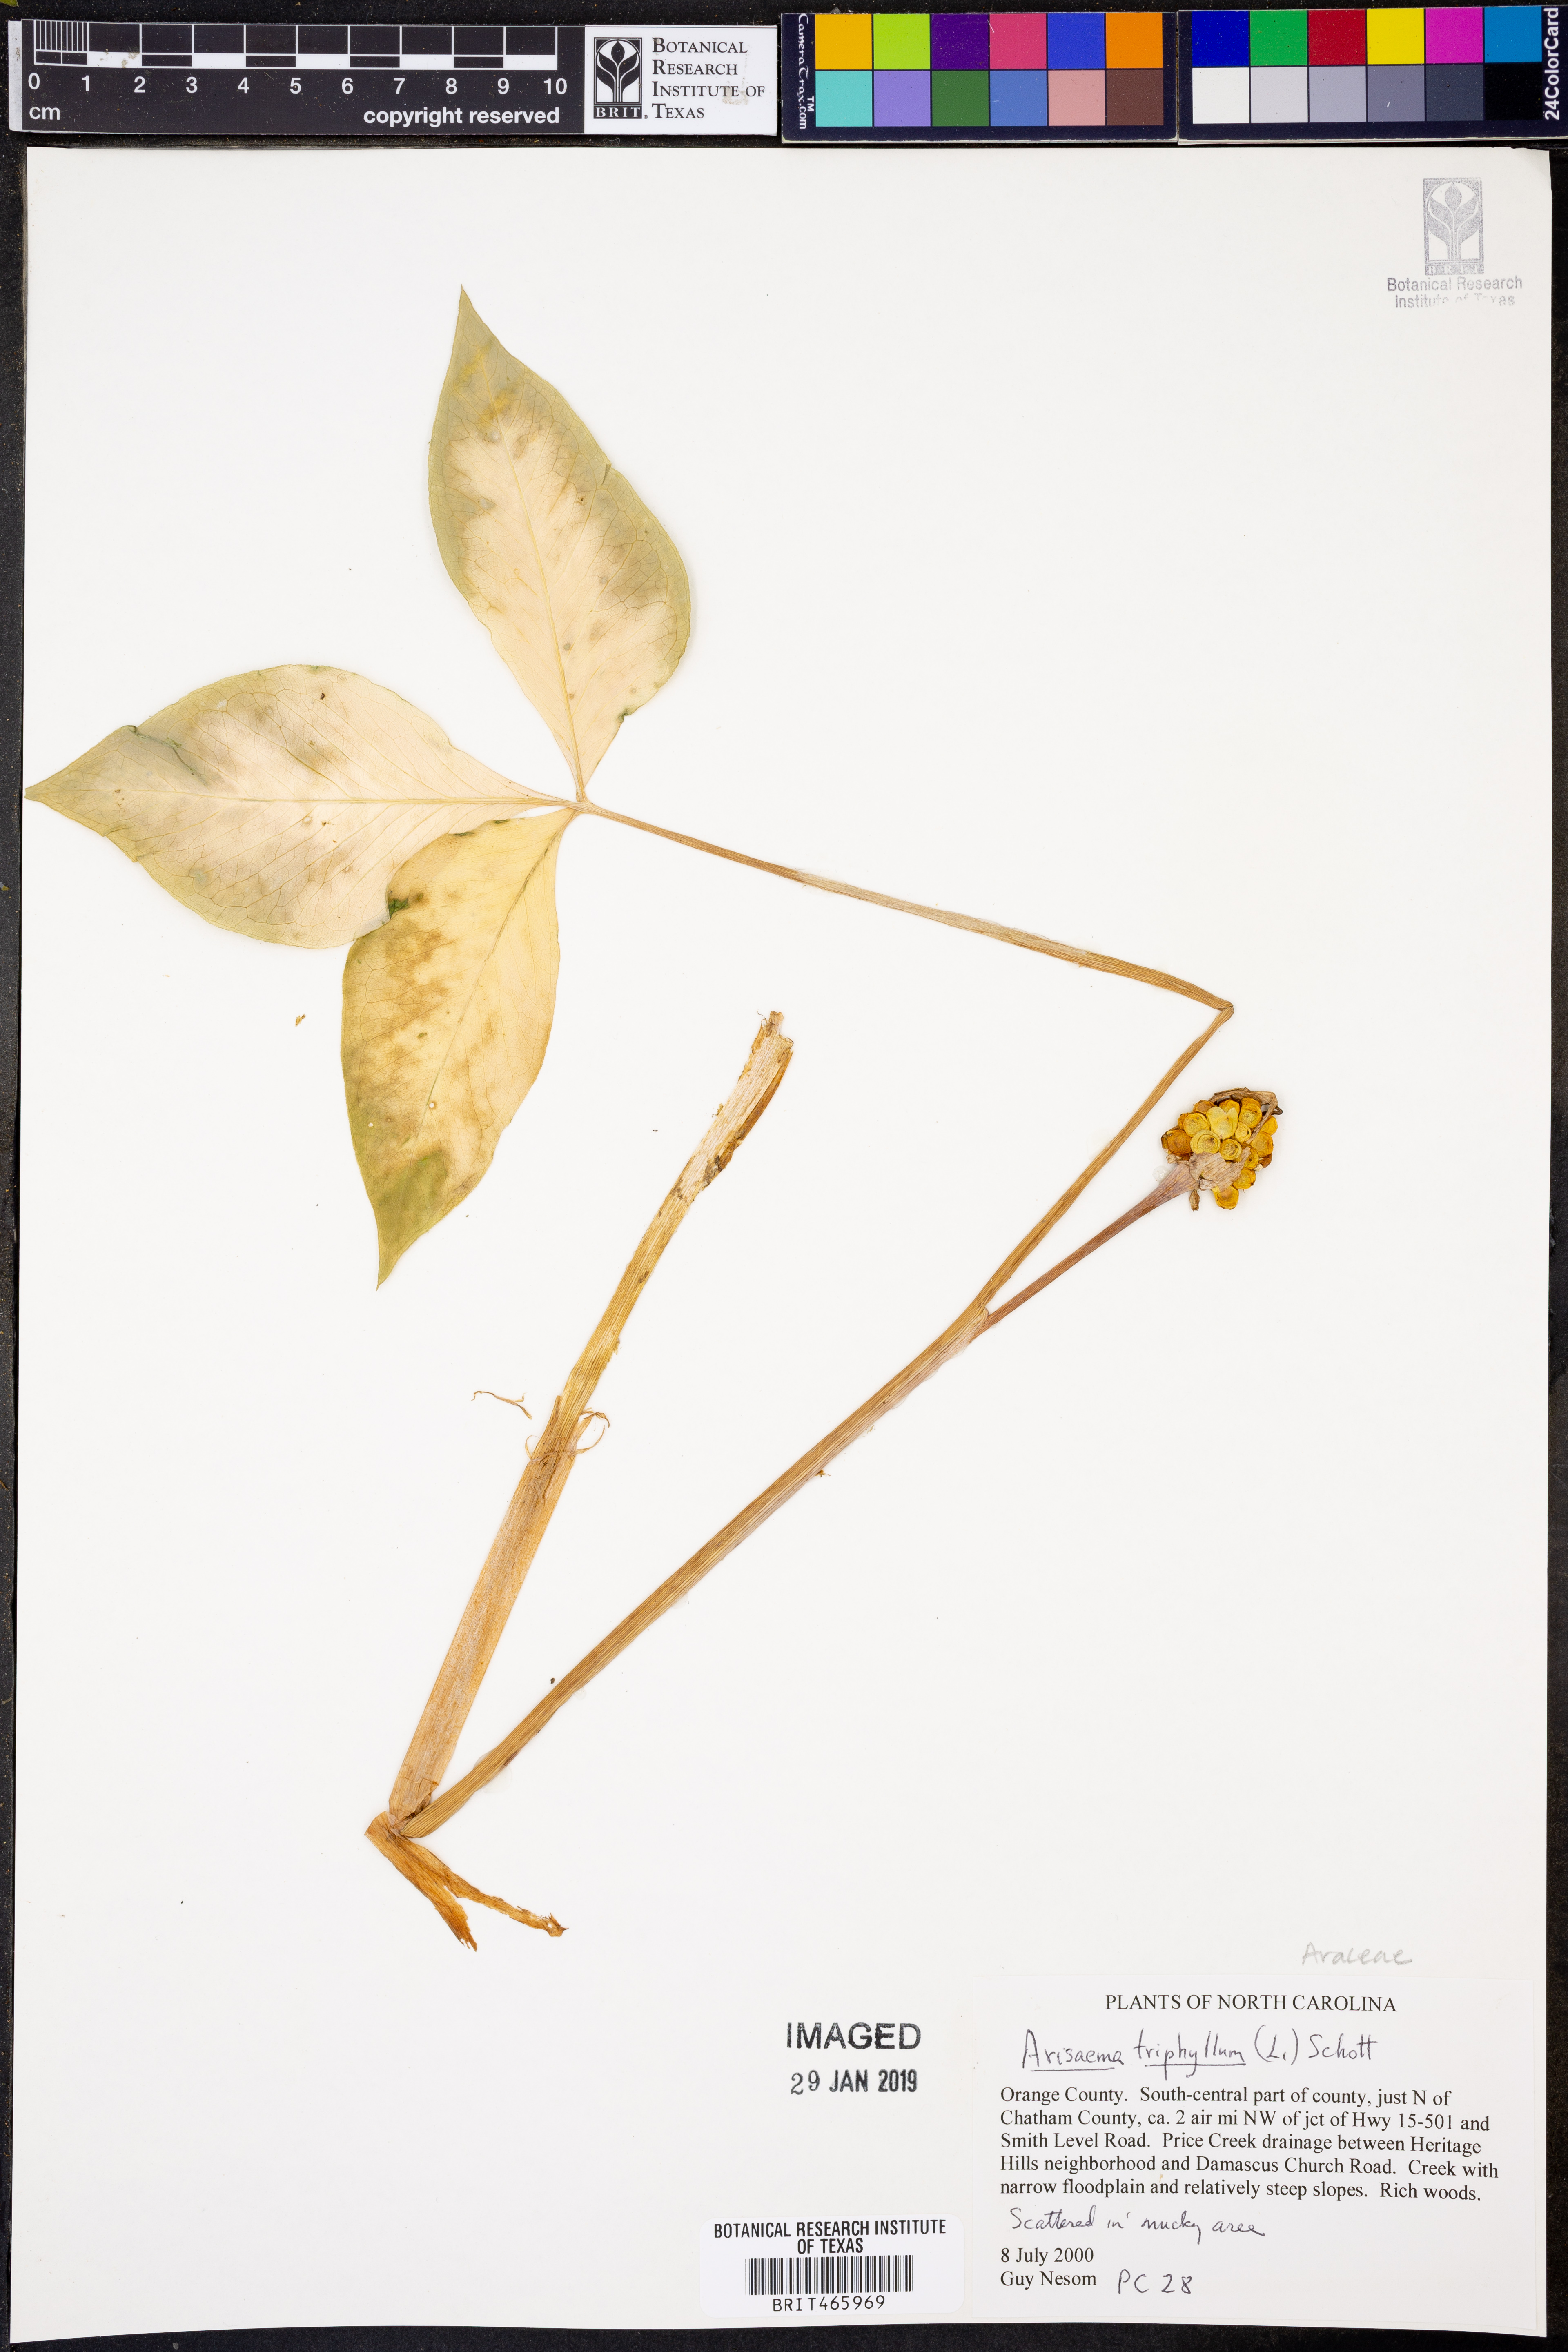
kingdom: Plantae
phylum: Tracheophyta
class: Liliopsida
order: Alismatales
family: Araceae
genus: Arisaema
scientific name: Arisaema triphyllum
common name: Jack-in-the-pulpit
